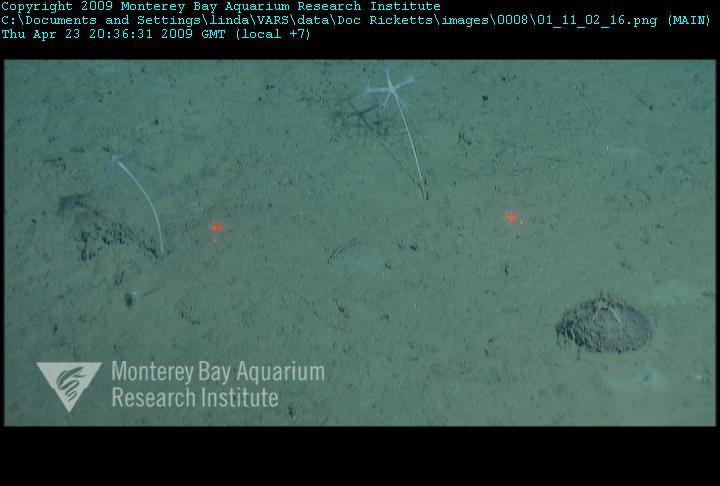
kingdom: Animalia
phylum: Porifera
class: Demospongiae
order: Poecilosclerida
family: Cladorhizidae
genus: Cladorhiza
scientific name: Cladorhiza
